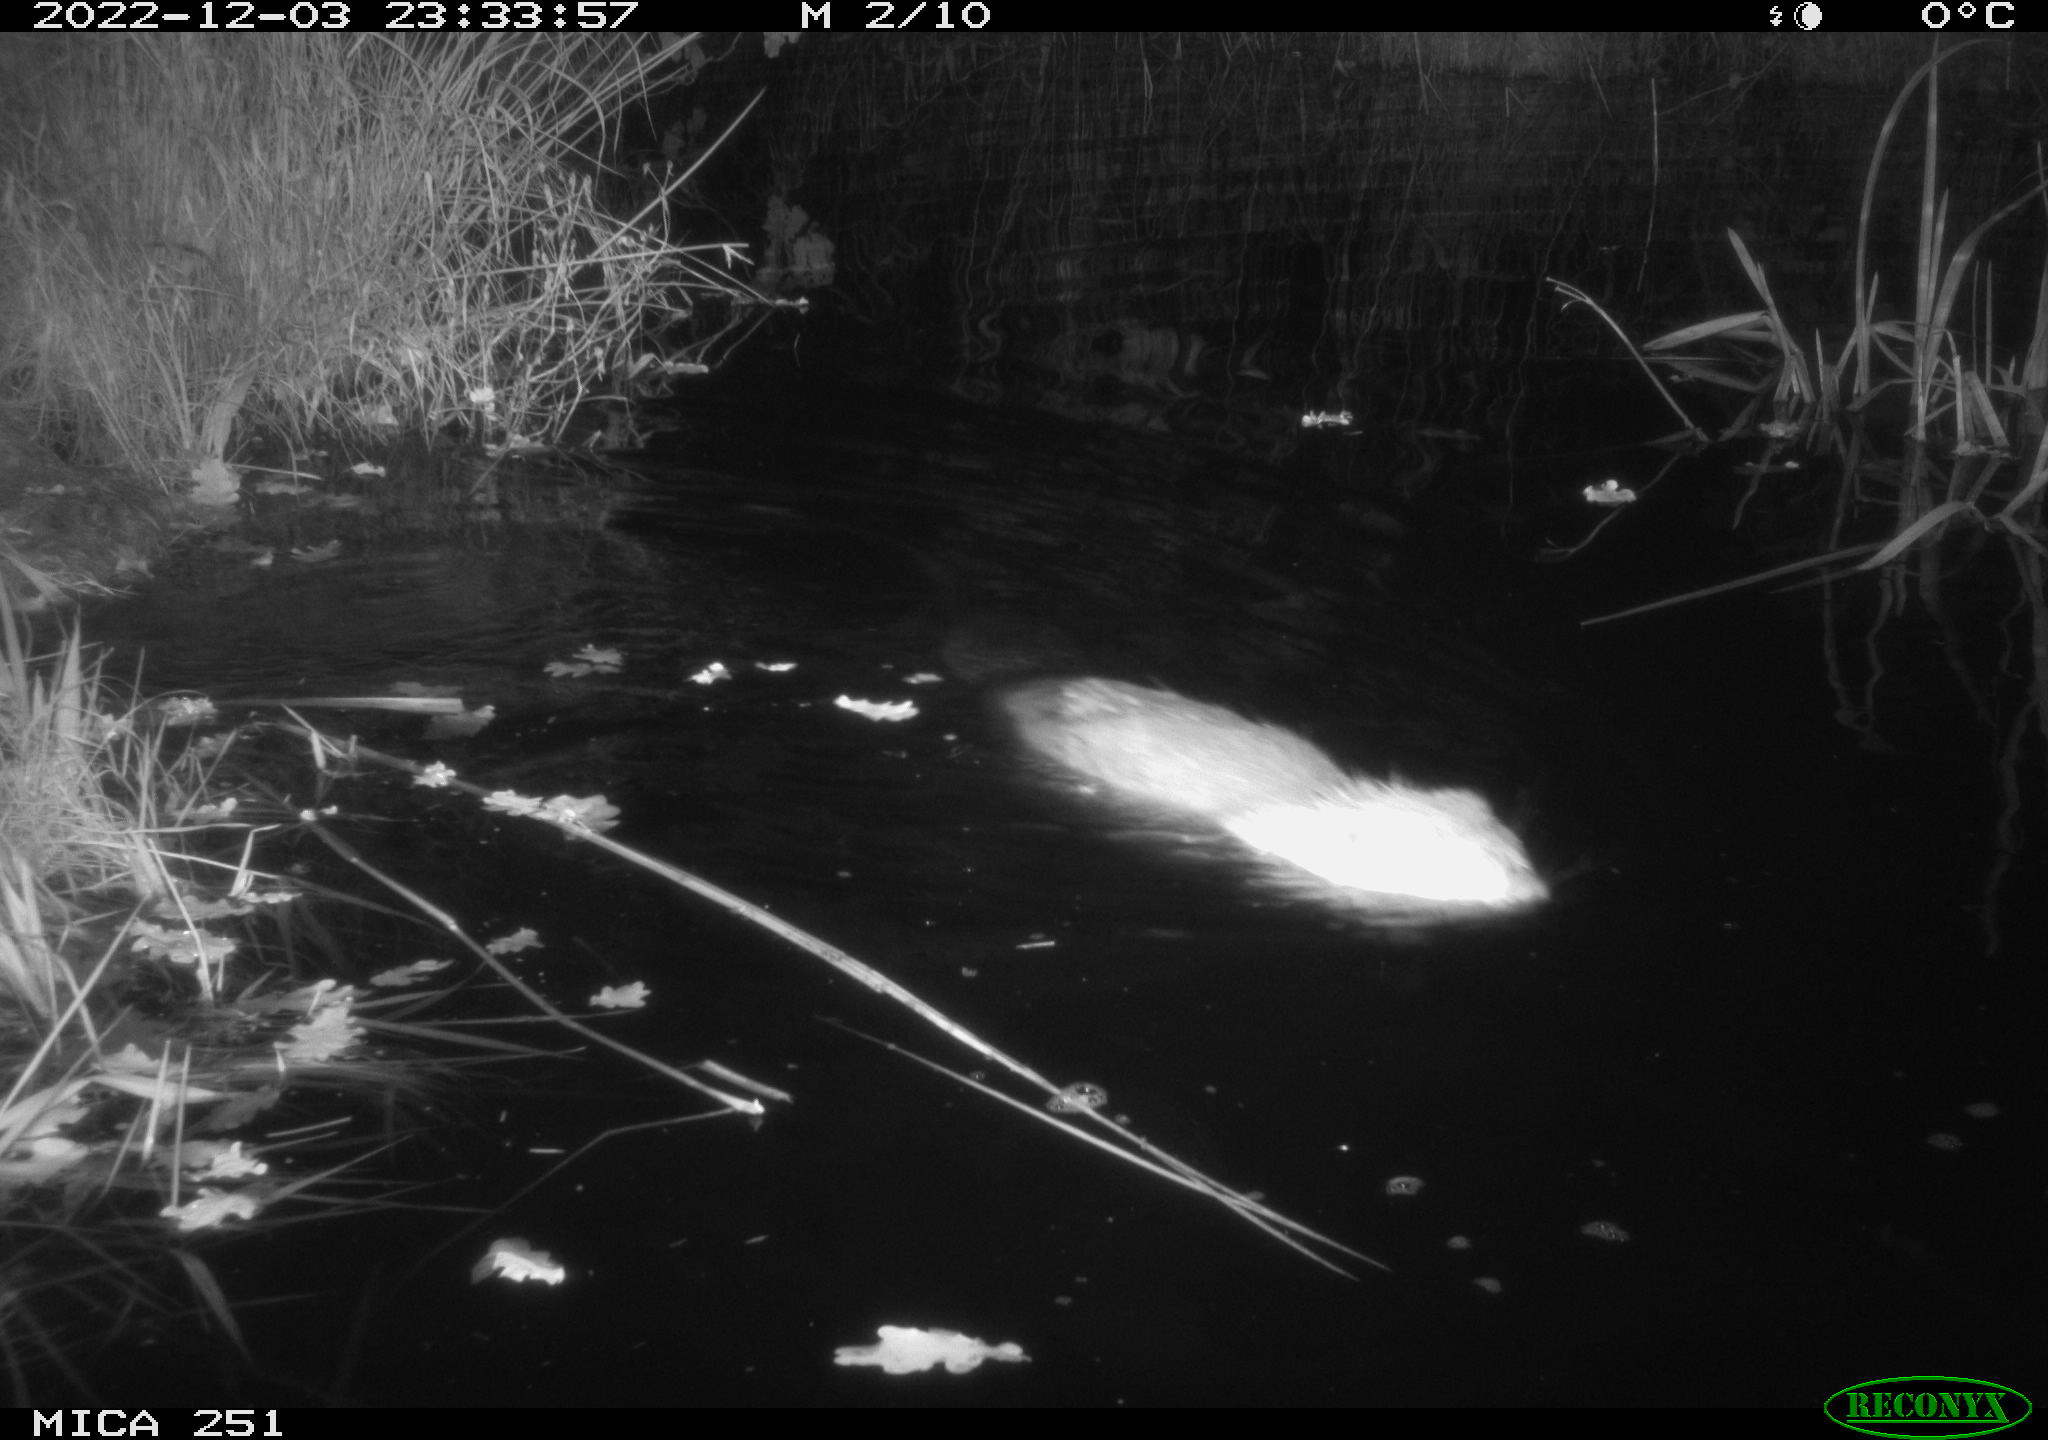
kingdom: Animalia
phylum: Chordata
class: Mammalia
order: Rodentia
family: Castoridae
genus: Castor
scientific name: Castor fiber
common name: Eurasian beaver
